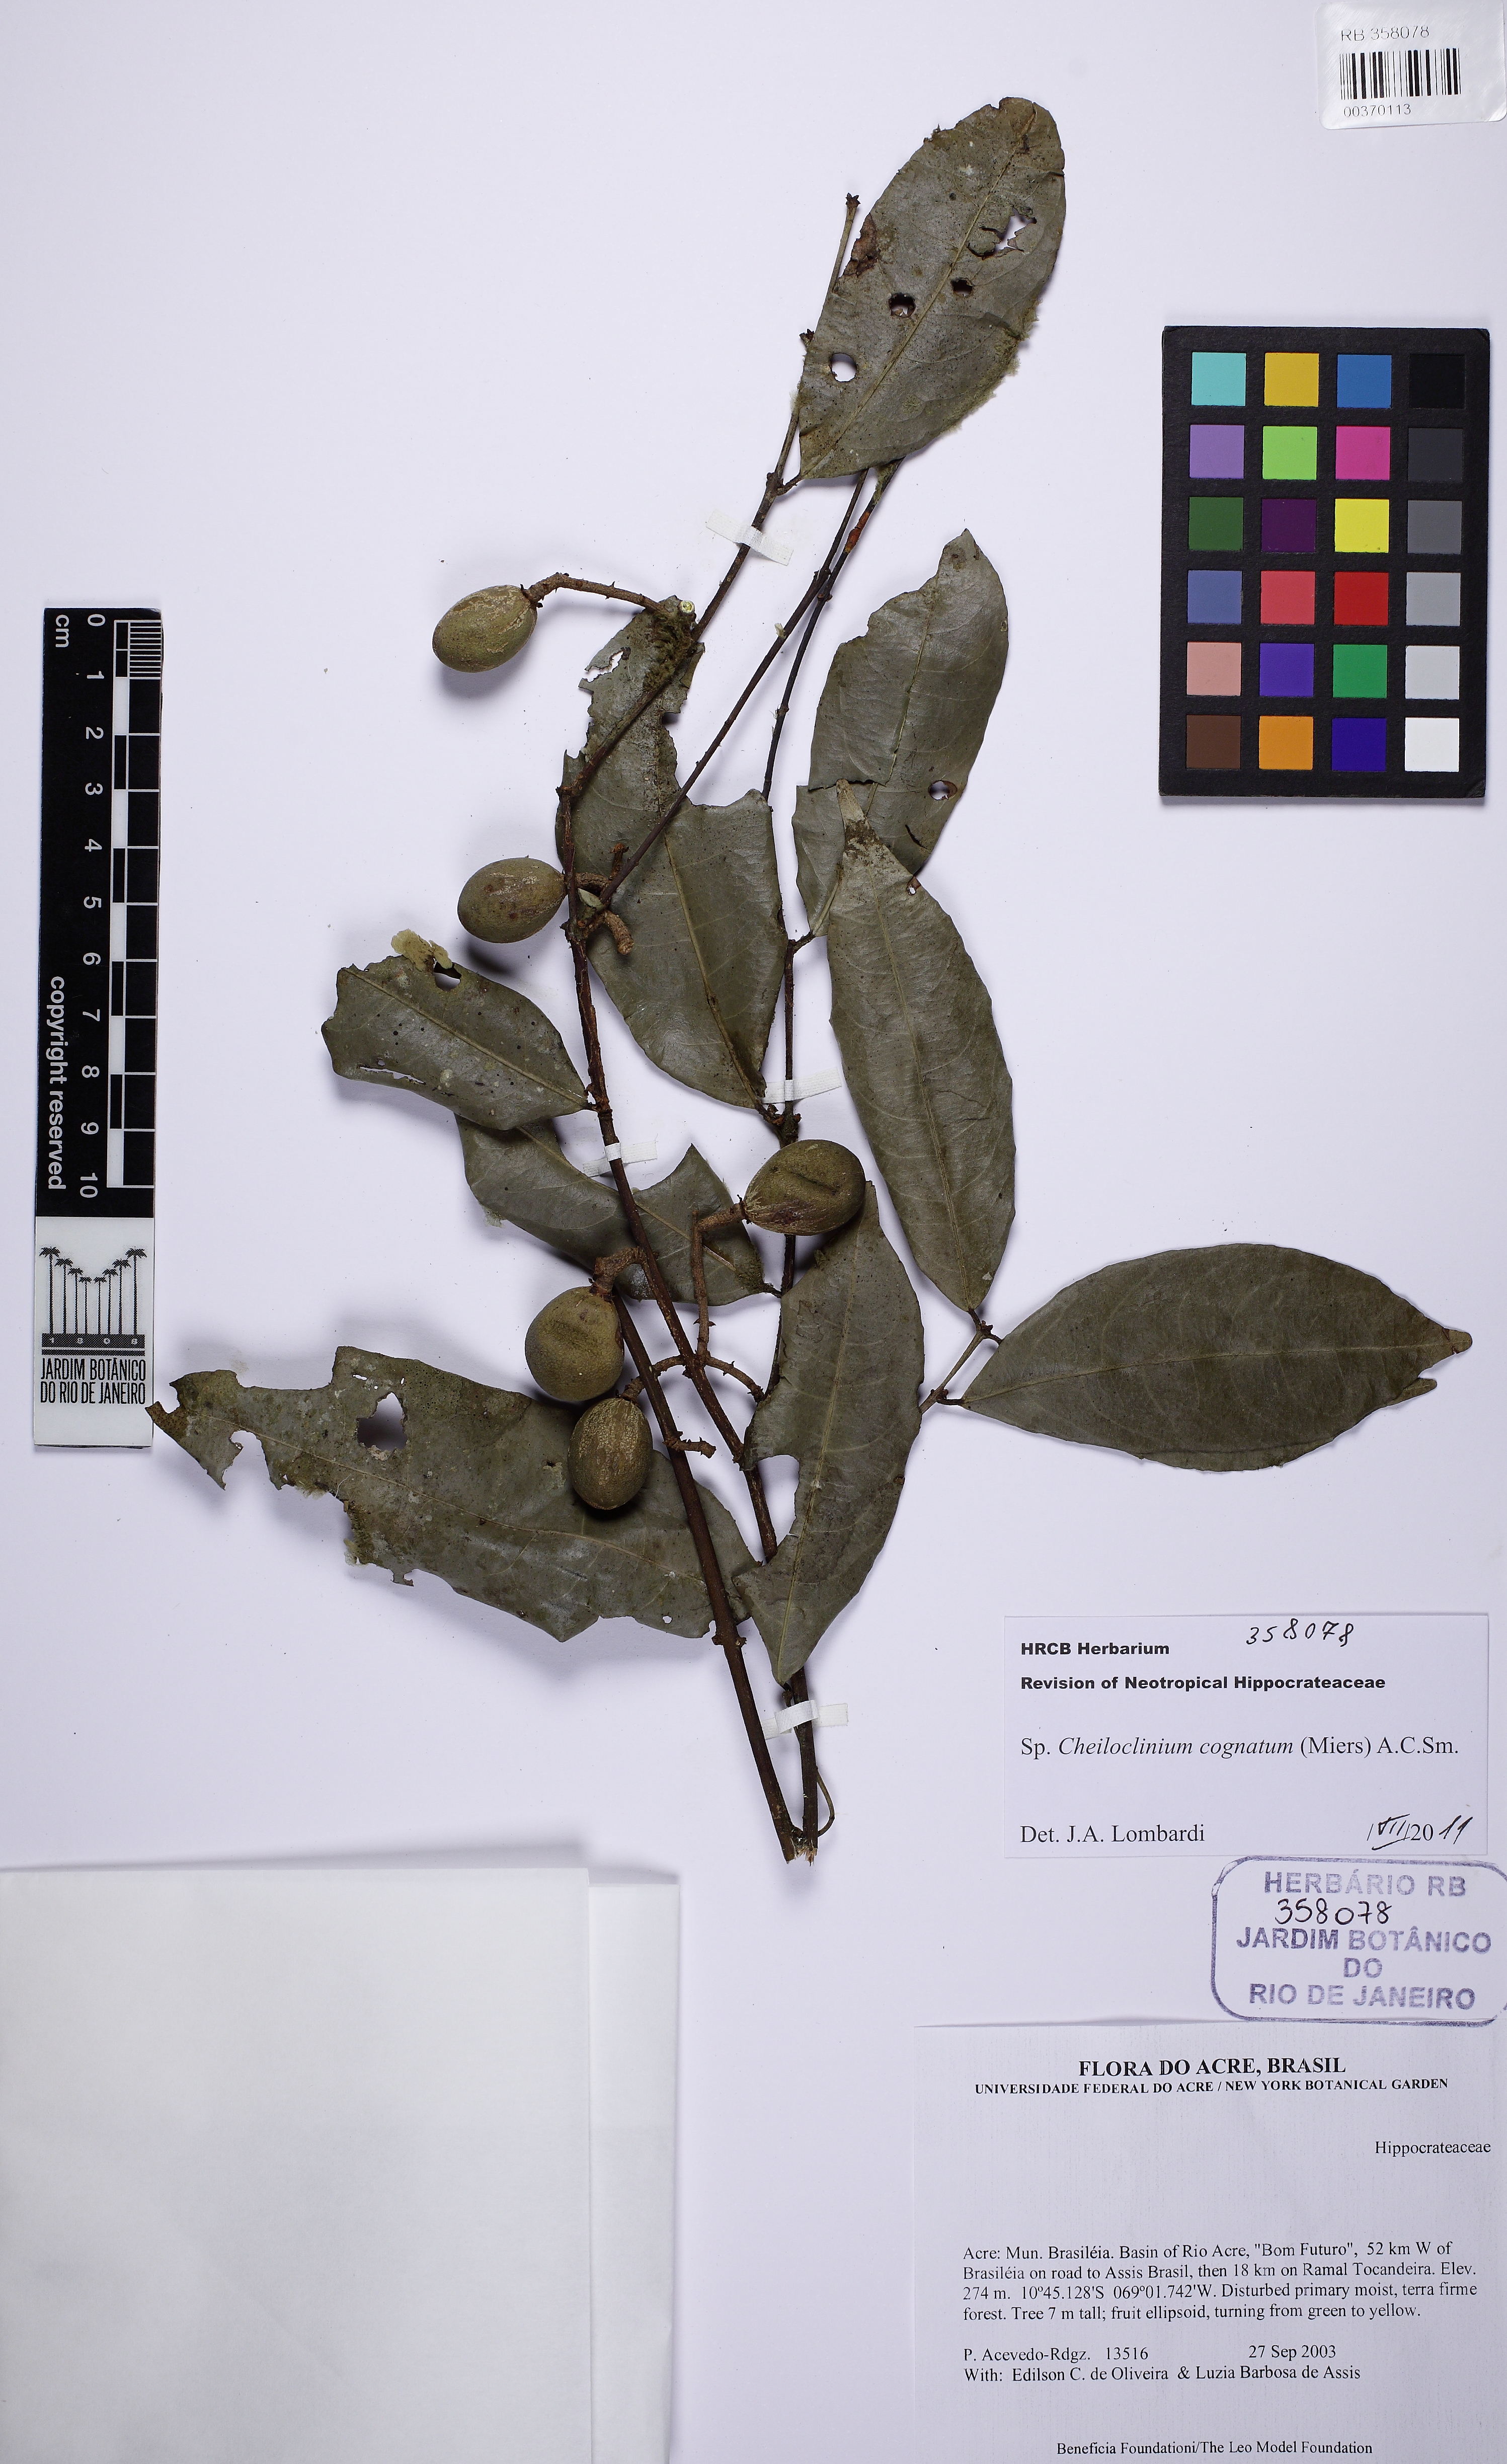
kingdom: Plantae
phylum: Tracheophyta
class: Magnoliopsida
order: Celastrales
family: Celastraceae
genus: Cheiloclinium
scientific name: Cheiloclinium cognatum
